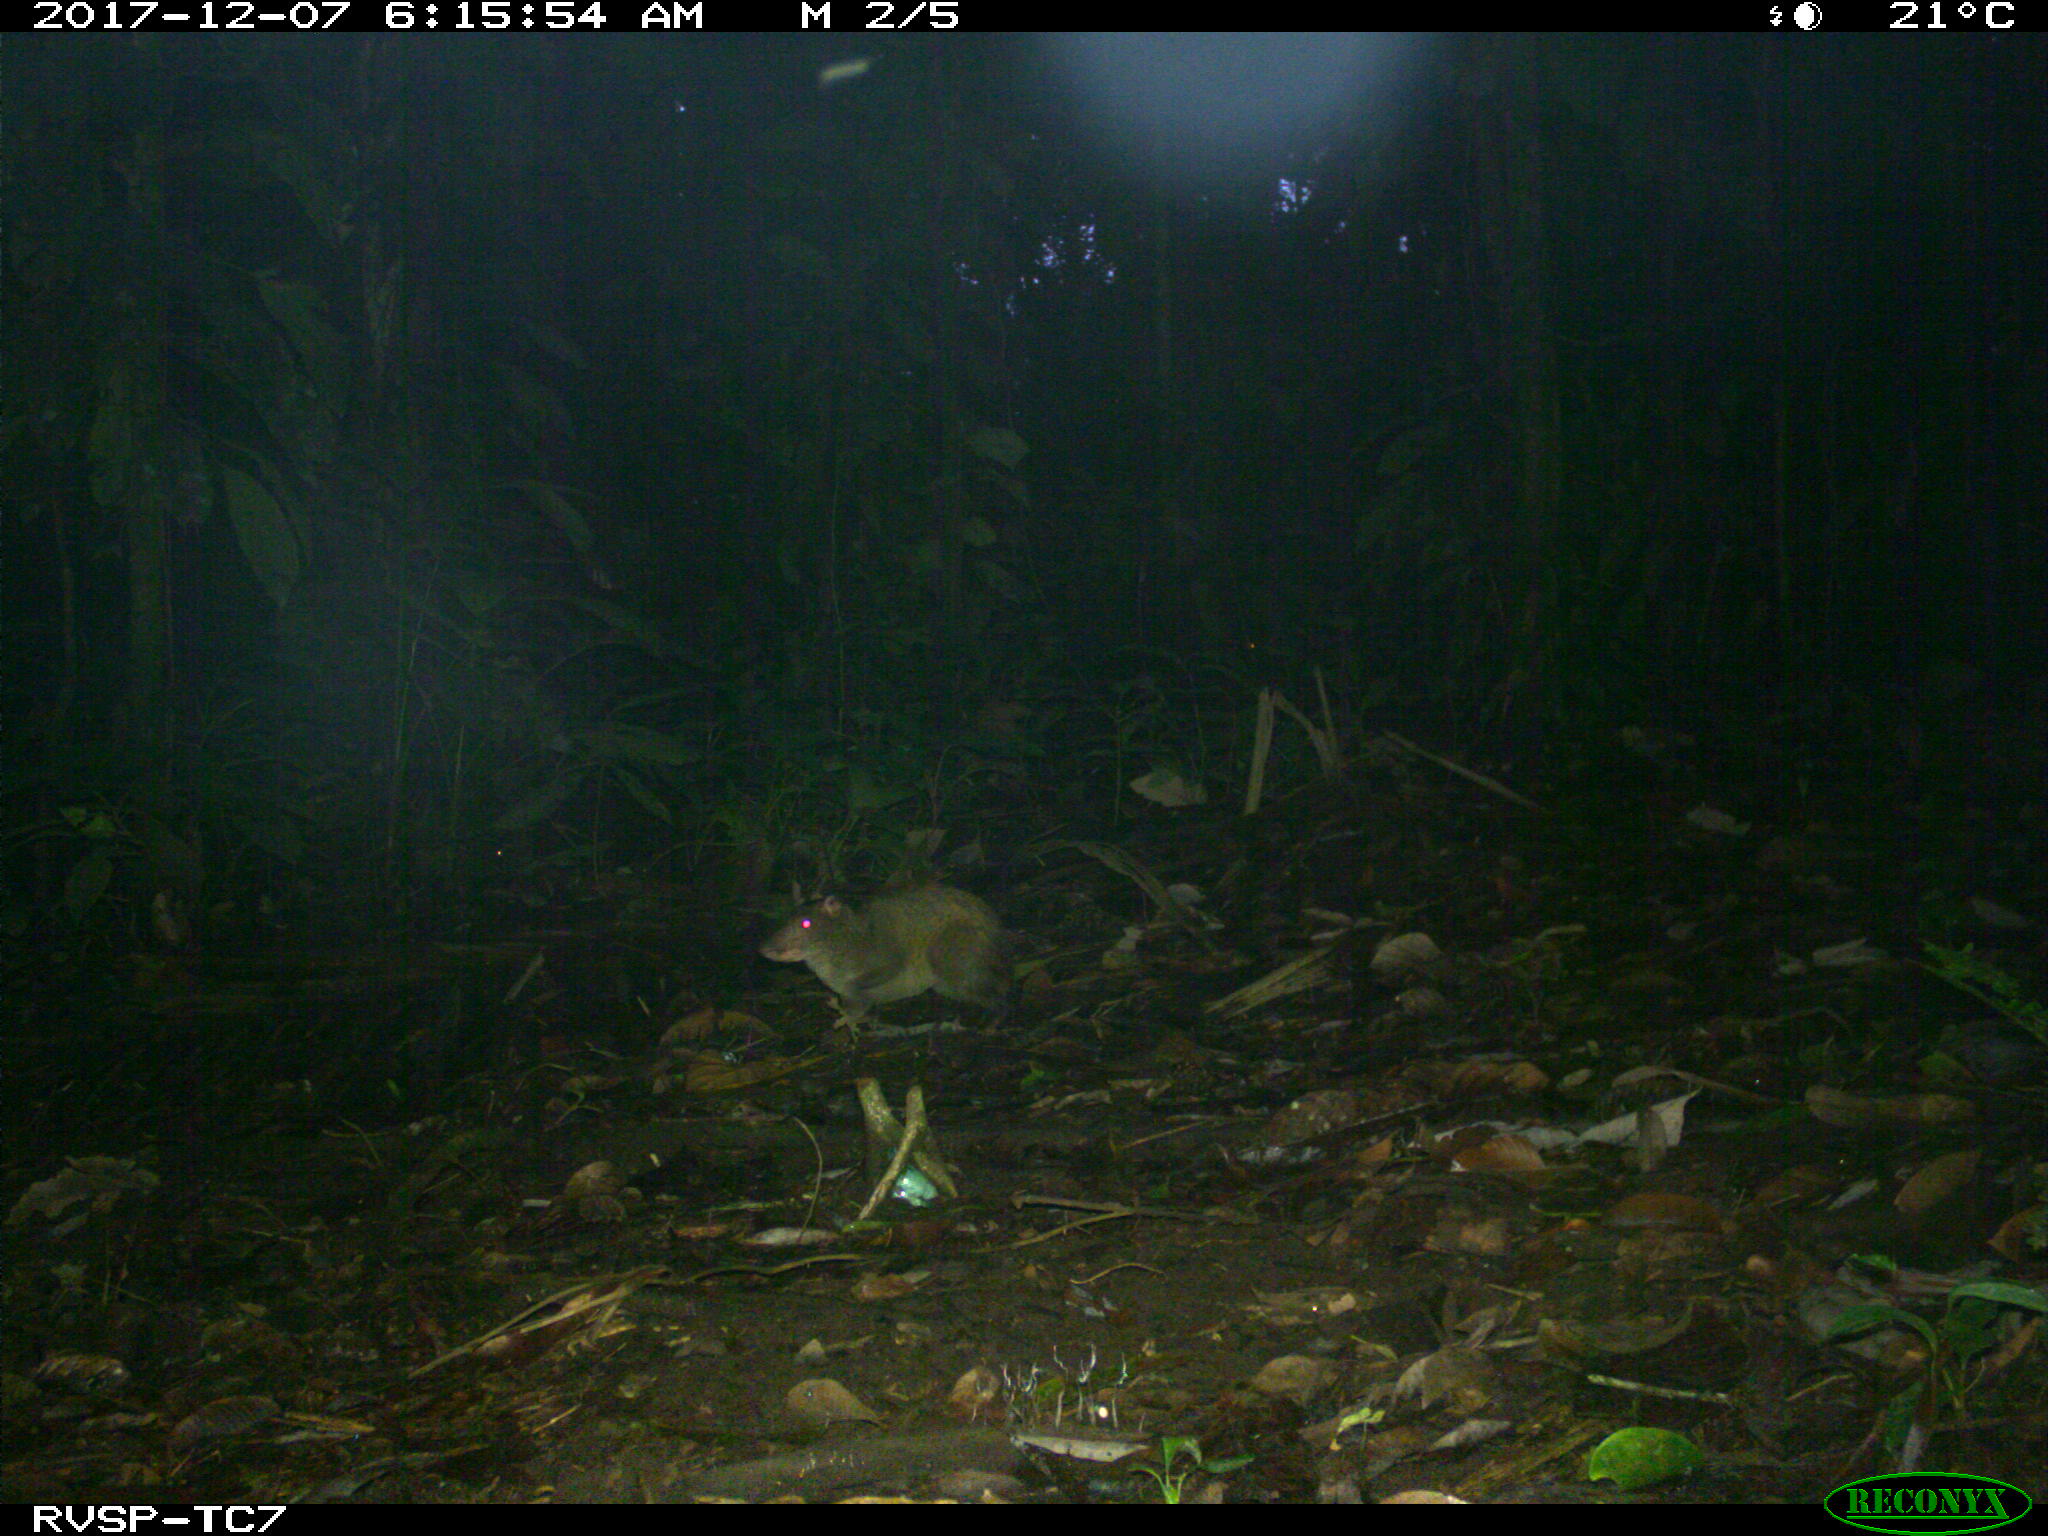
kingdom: Animalia
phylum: Chordata
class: Mammalia
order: Rodentia
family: Dasyproctidae
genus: Dasyprocta
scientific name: Dasyprocta punctata
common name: Central american agouti
